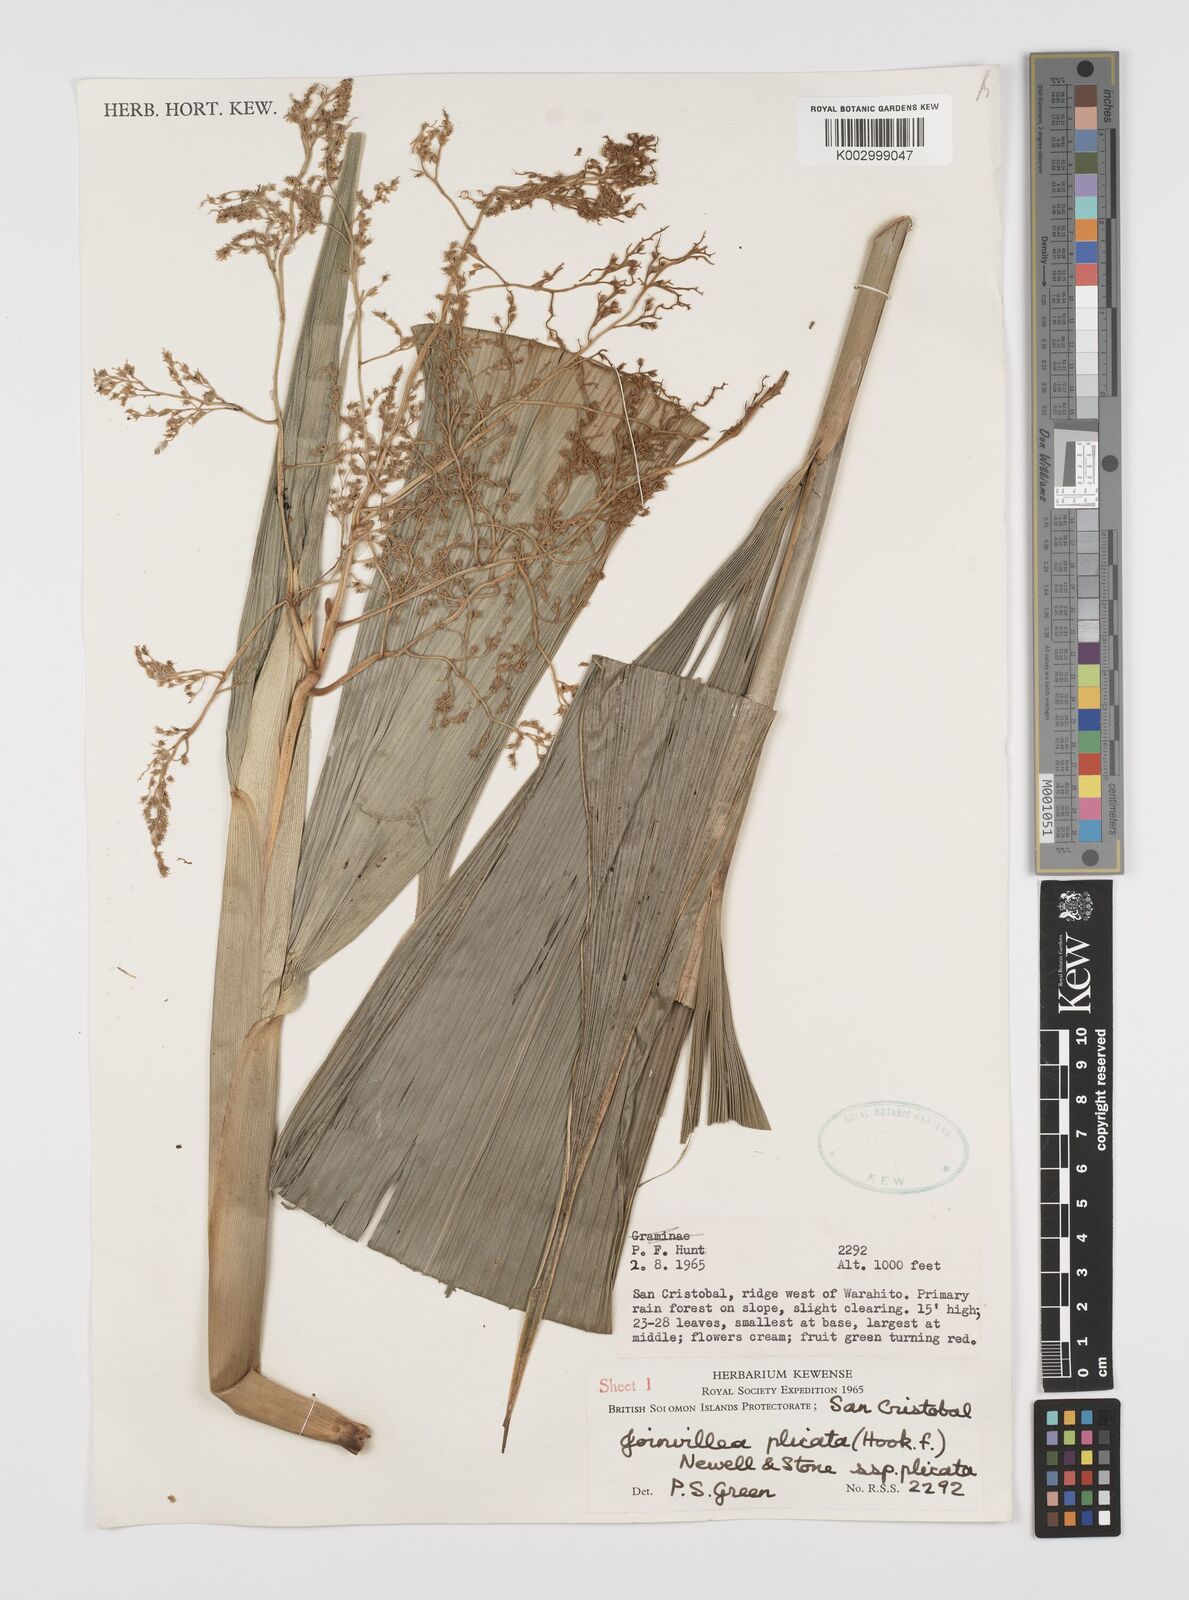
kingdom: Plantae
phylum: Tracheophyta
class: Liliopsida
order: Poales
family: Joinvilleaceae
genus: Joinvillea
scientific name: Joinvillea plicata
